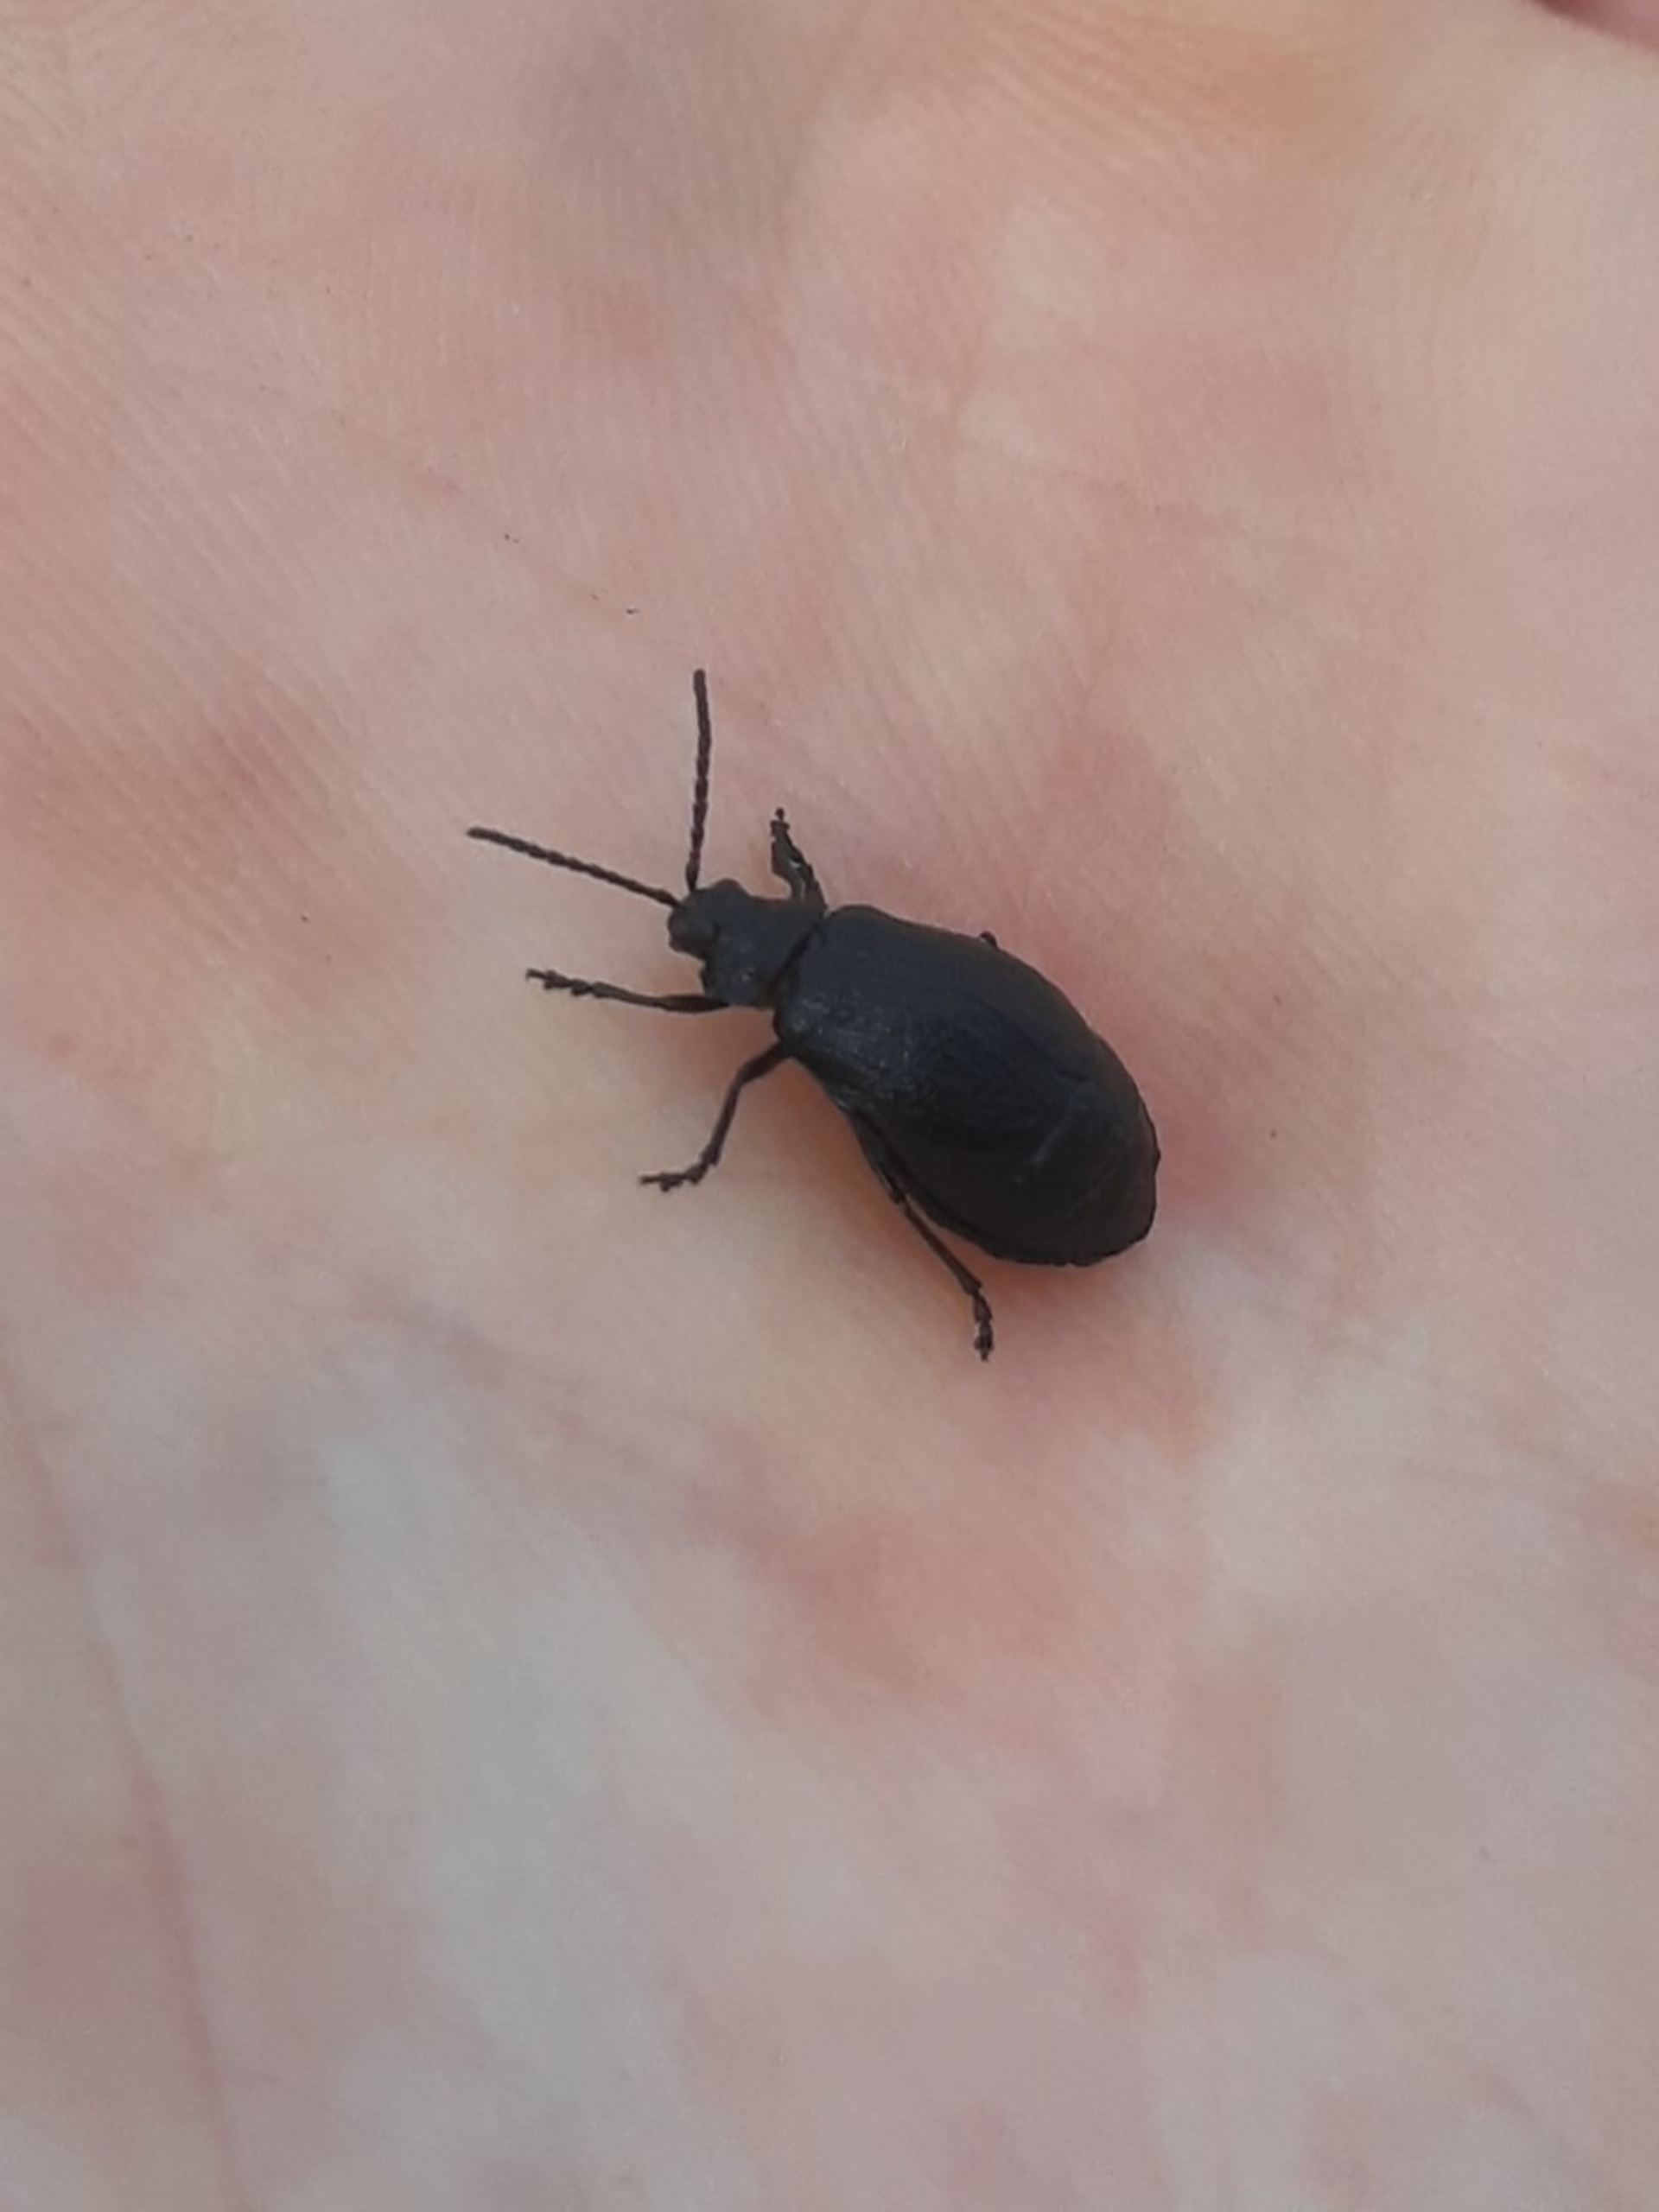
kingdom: Animalia
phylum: Arthropoda
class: Insecta
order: Coleoptera
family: Chrysomelidae
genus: Galeruca
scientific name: Galeruca tanaceti
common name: Rejnfanbladbille
